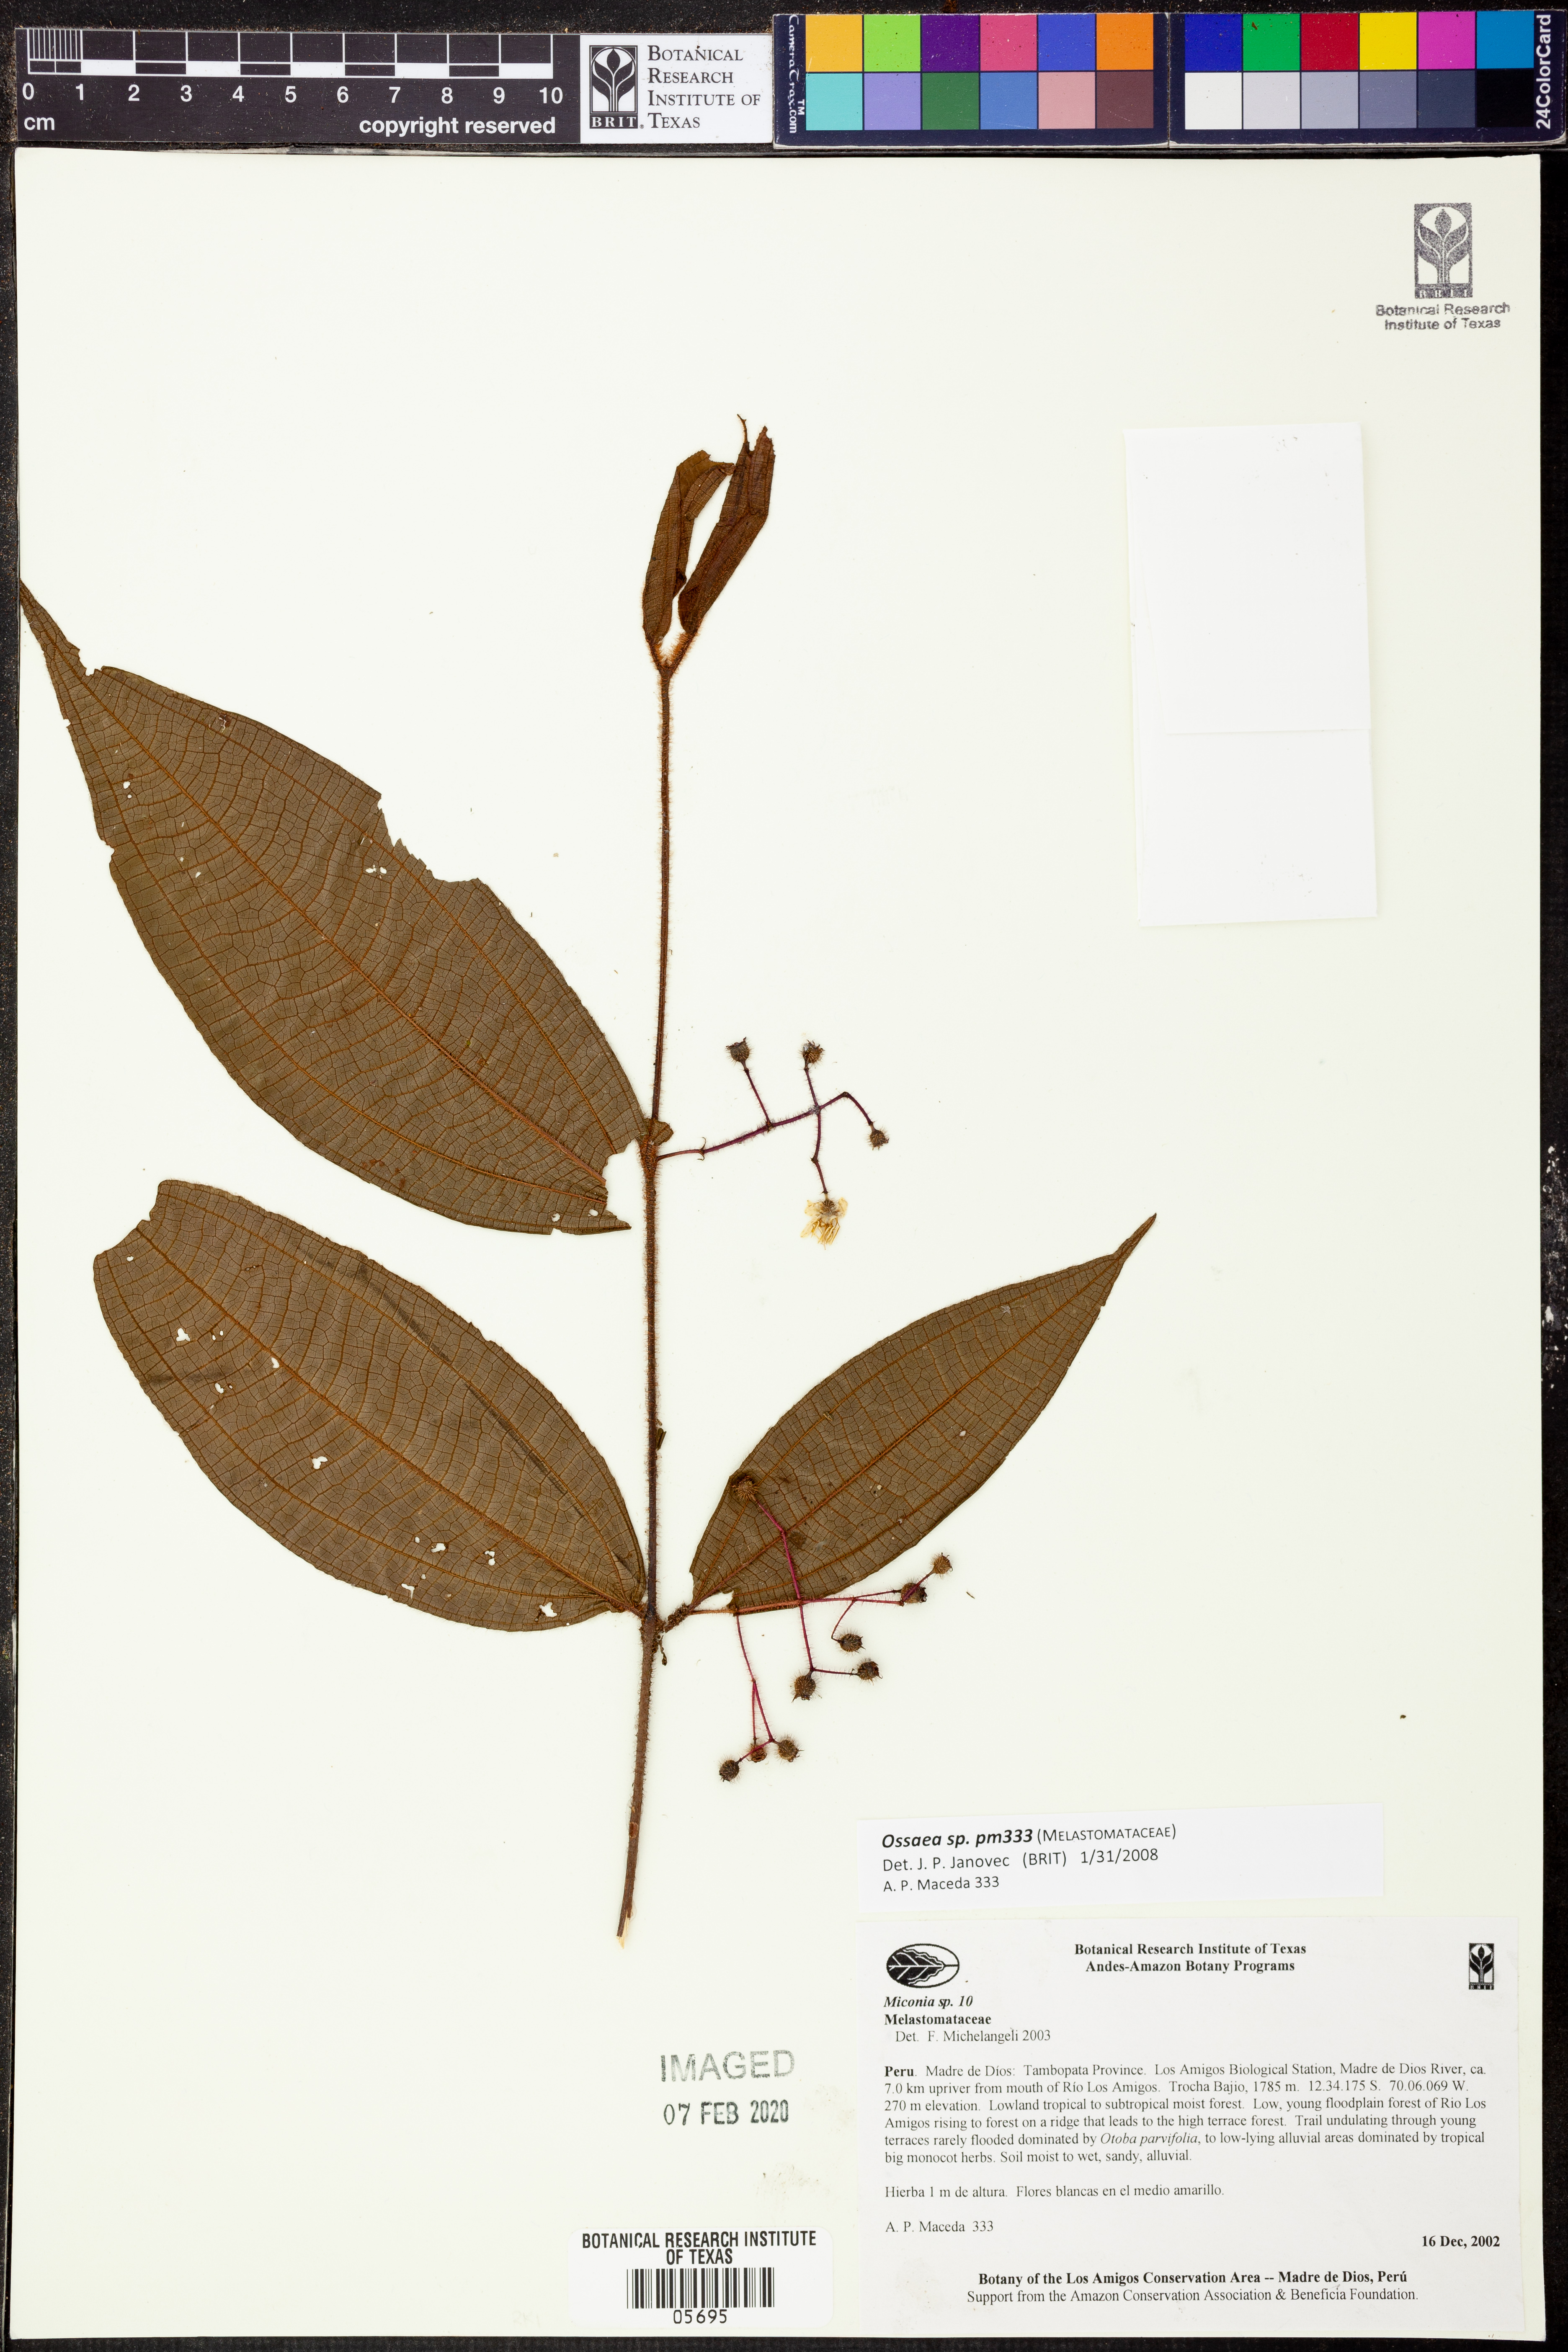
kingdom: Plantae
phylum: Tracheophyta
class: Magnoliopsida
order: Myrtales
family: Melastomataceae
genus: Ossaea
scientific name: Ossaea
